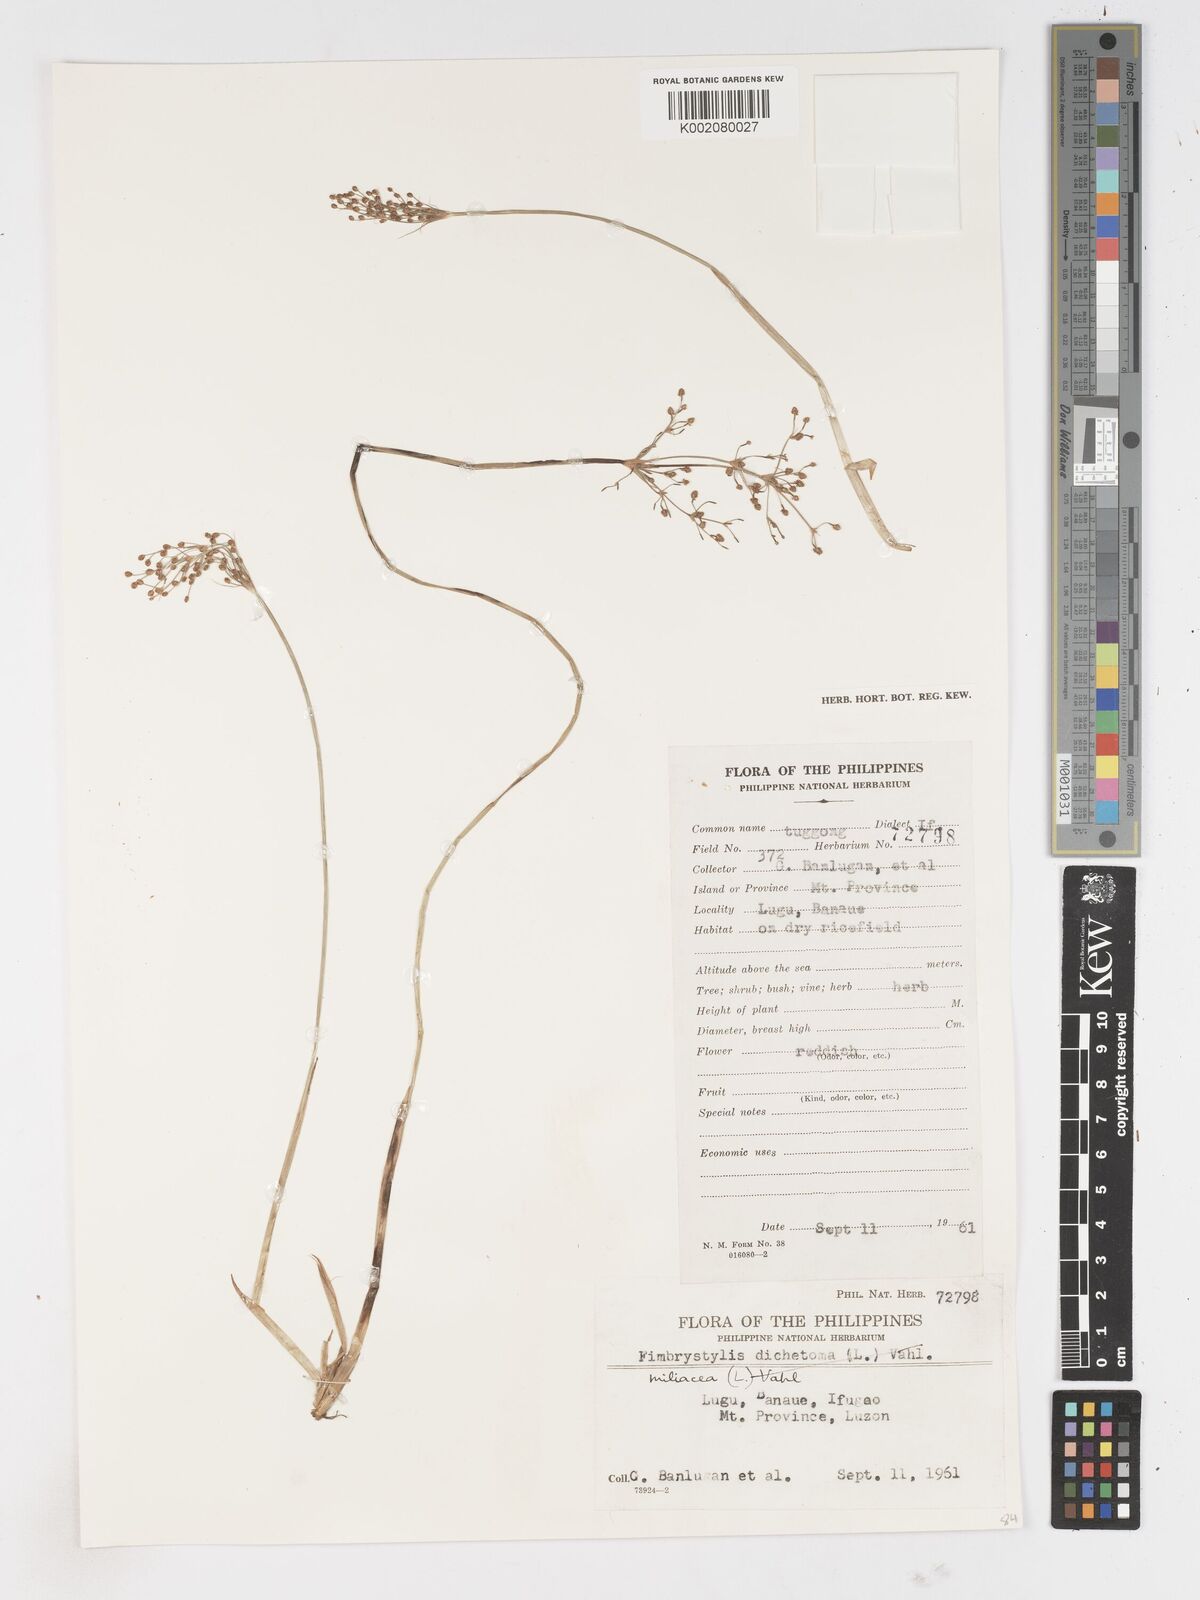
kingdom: Plantae
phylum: Tracheophyta
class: Liliopsida
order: Poales
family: Cyperaceae
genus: Fimbristylis
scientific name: Fimbristylis littoralis
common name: Fimbry
